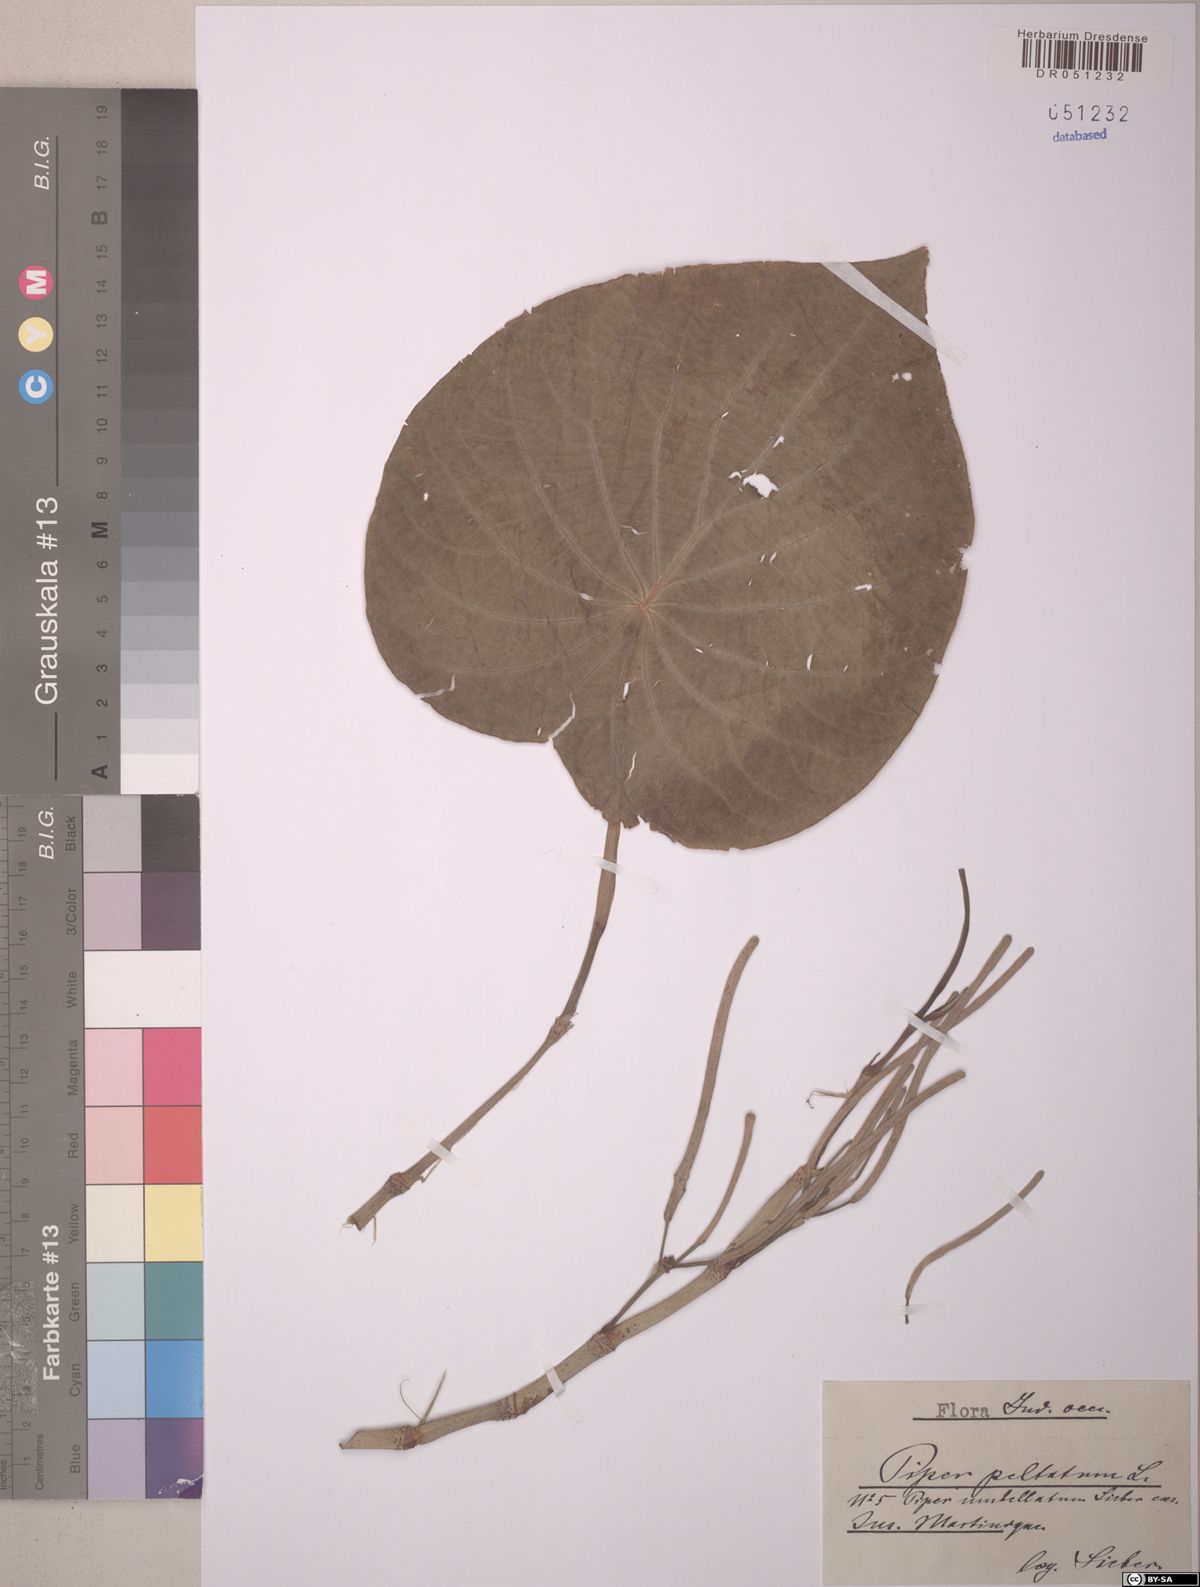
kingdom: Plantae
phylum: Tracheophyta
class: Magnoliopsida
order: Piperales
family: Piperaceae
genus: Piper
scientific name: Piper peltatum
